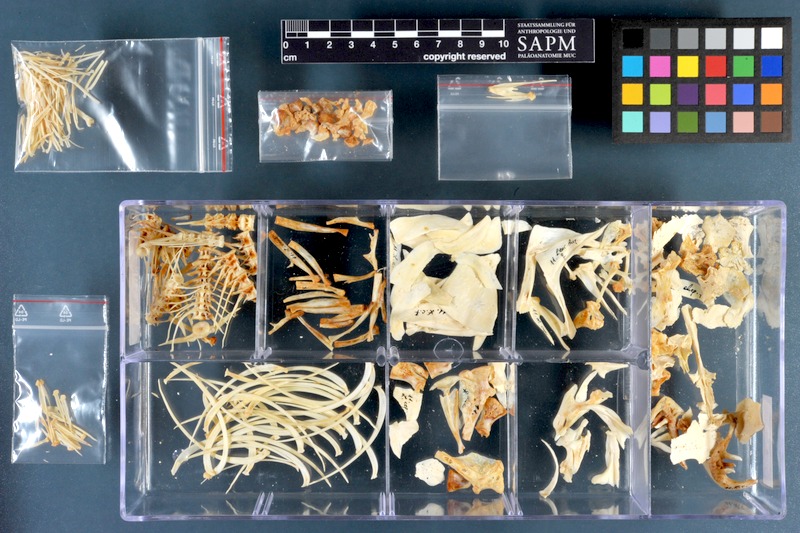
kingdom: Animalia
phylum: Chordata
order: Cypriniformes
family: Cyprinidae
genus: Squalius
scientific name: Squalius cephalus
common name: Chub
